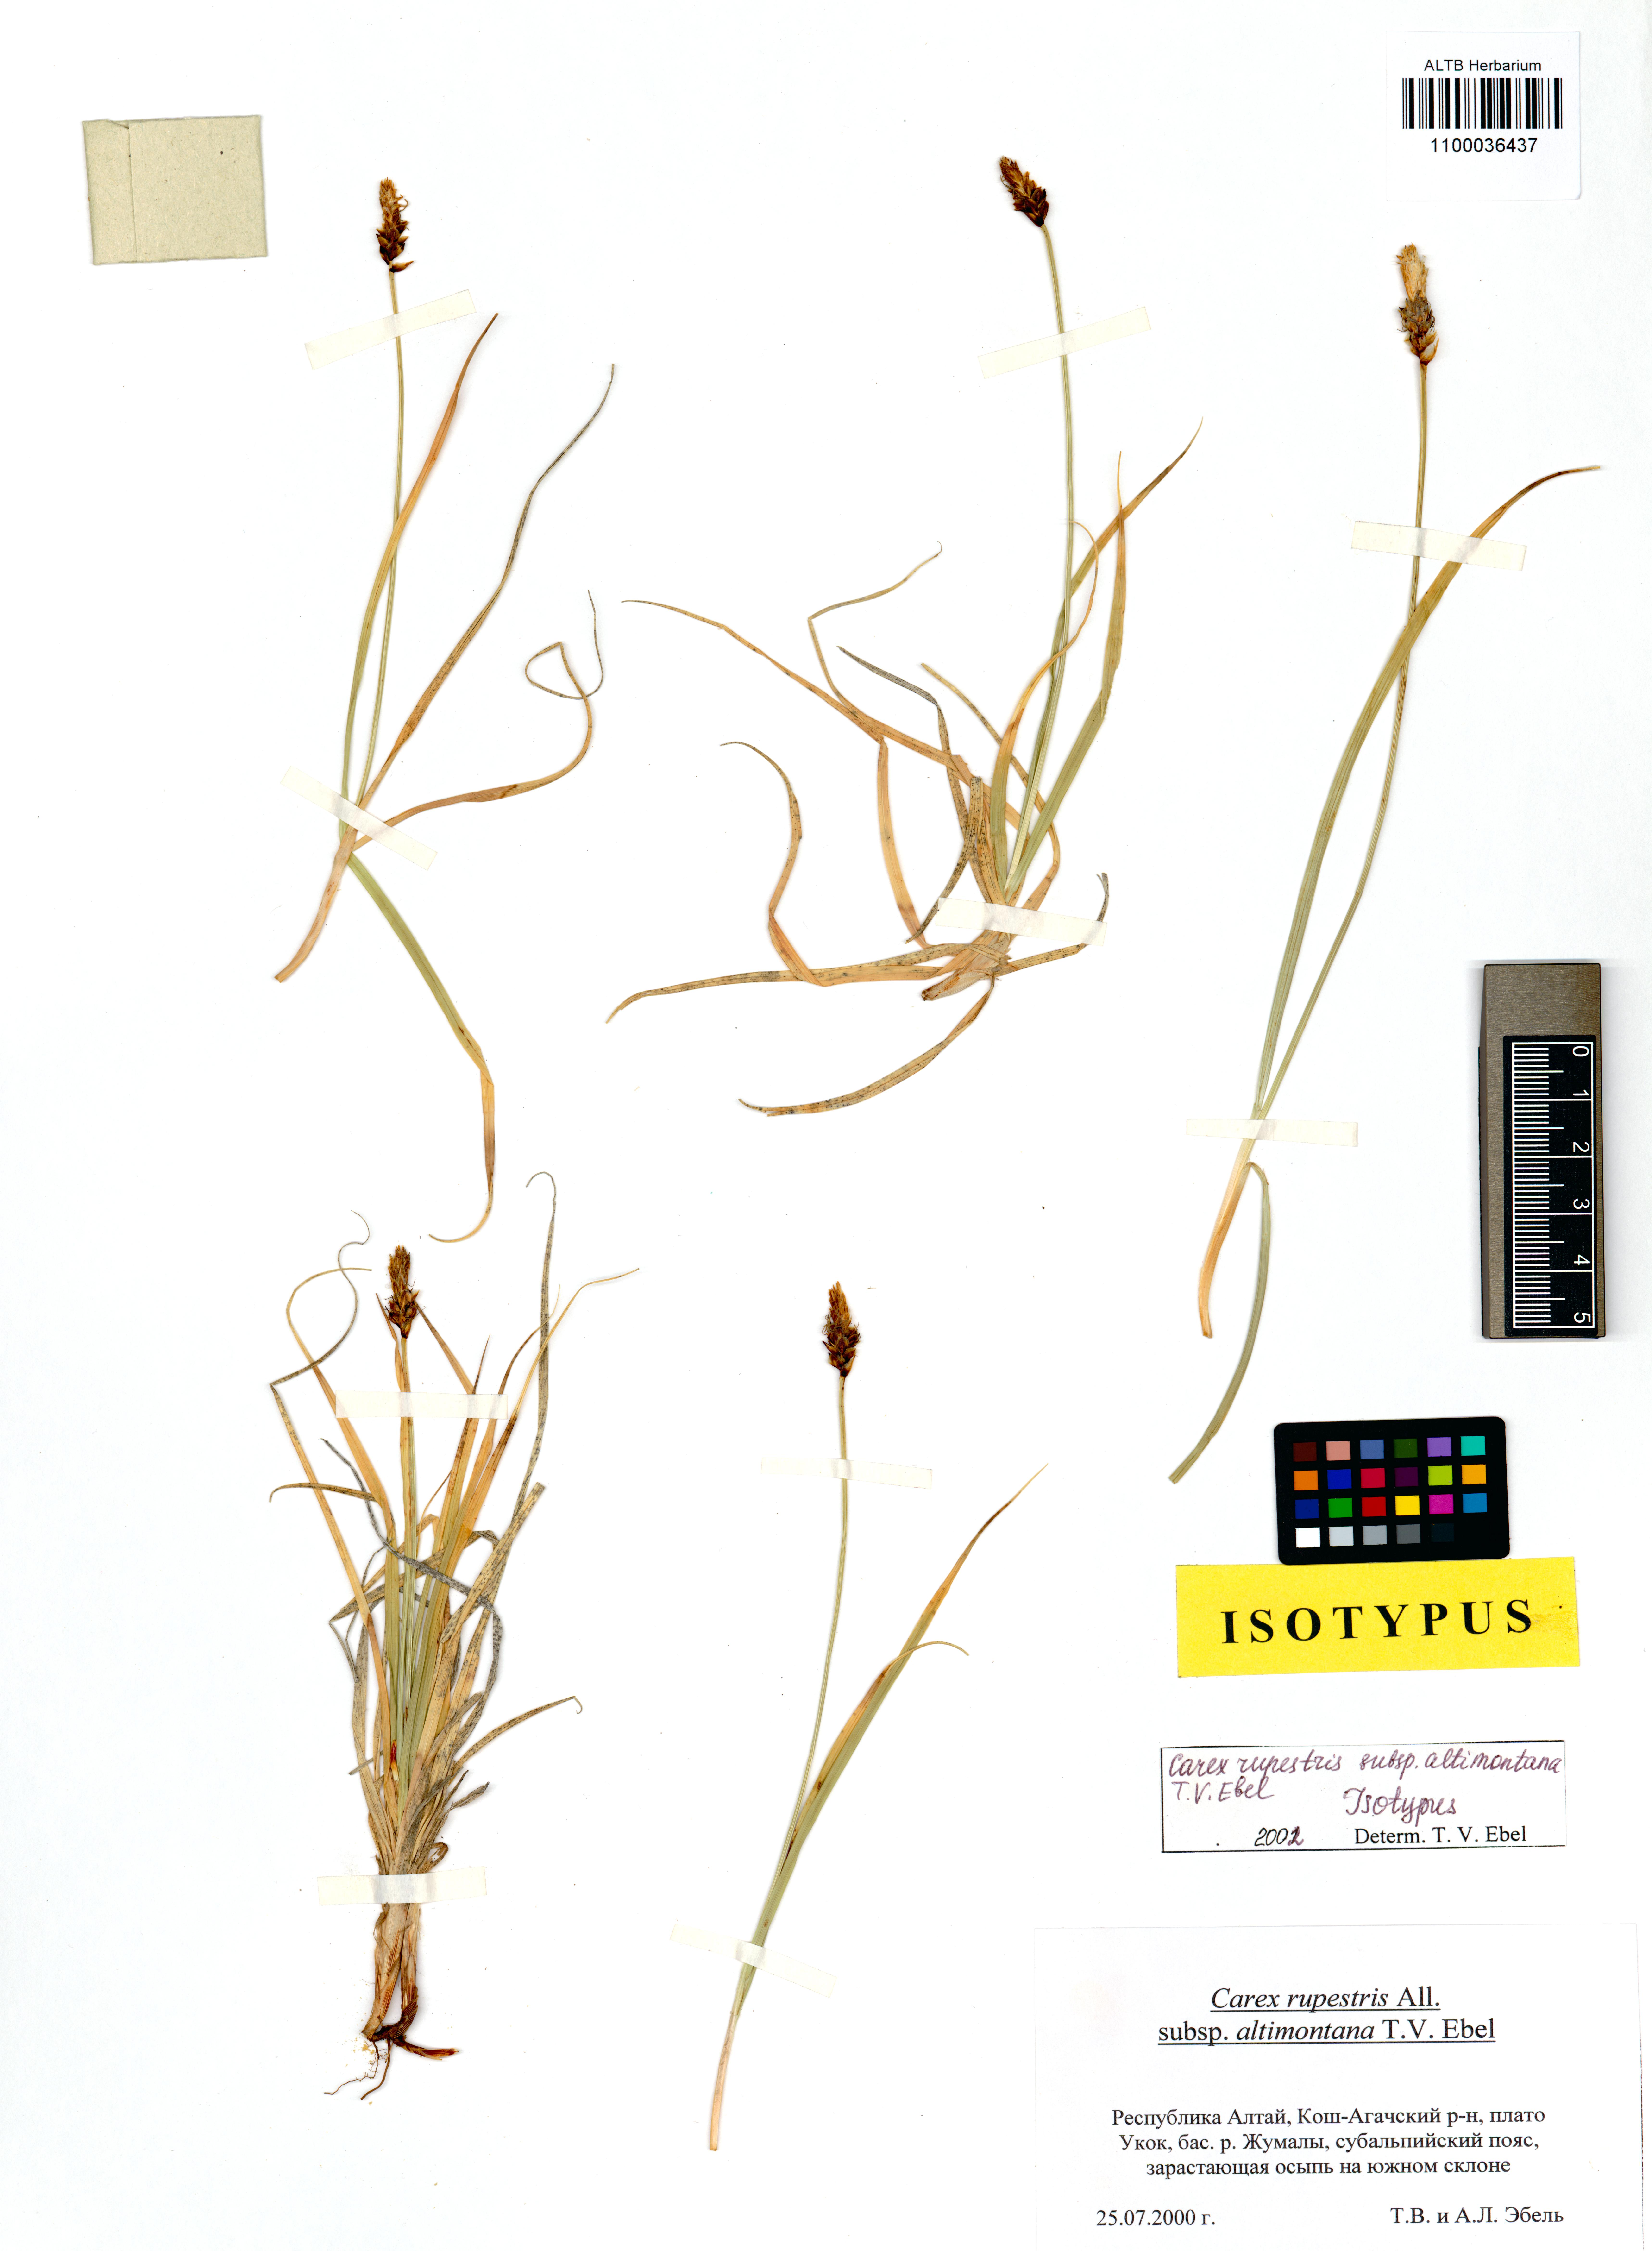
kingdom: Plantae
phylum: Tracheophyta
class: Liliopsida
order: Poales
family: Cyperaceae
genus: Carex
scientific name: Carex rupestris
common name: Rock sedge
